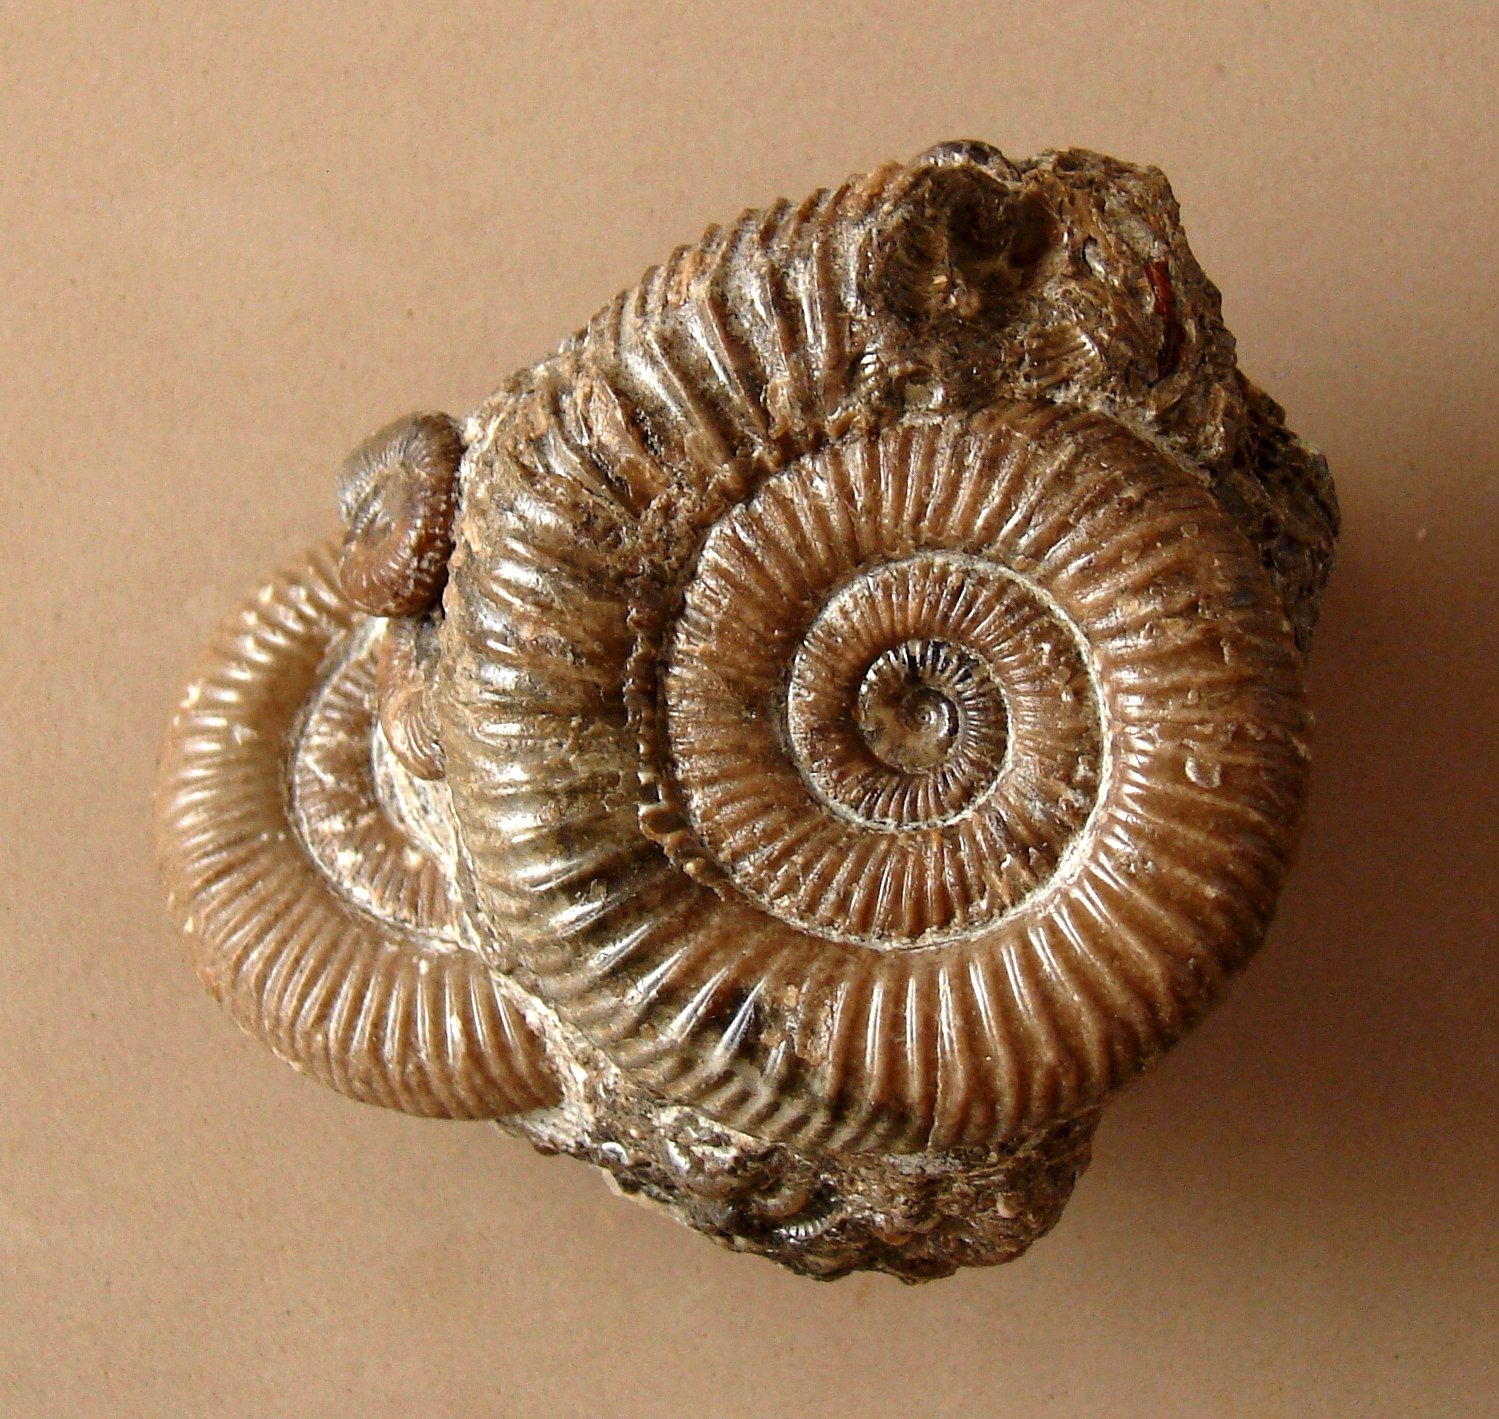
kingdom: Animalia
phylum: Mollusca
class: Cephalopoda
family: Dactylioceratidae
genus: Dactylioceras
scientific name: Dactylioceras
